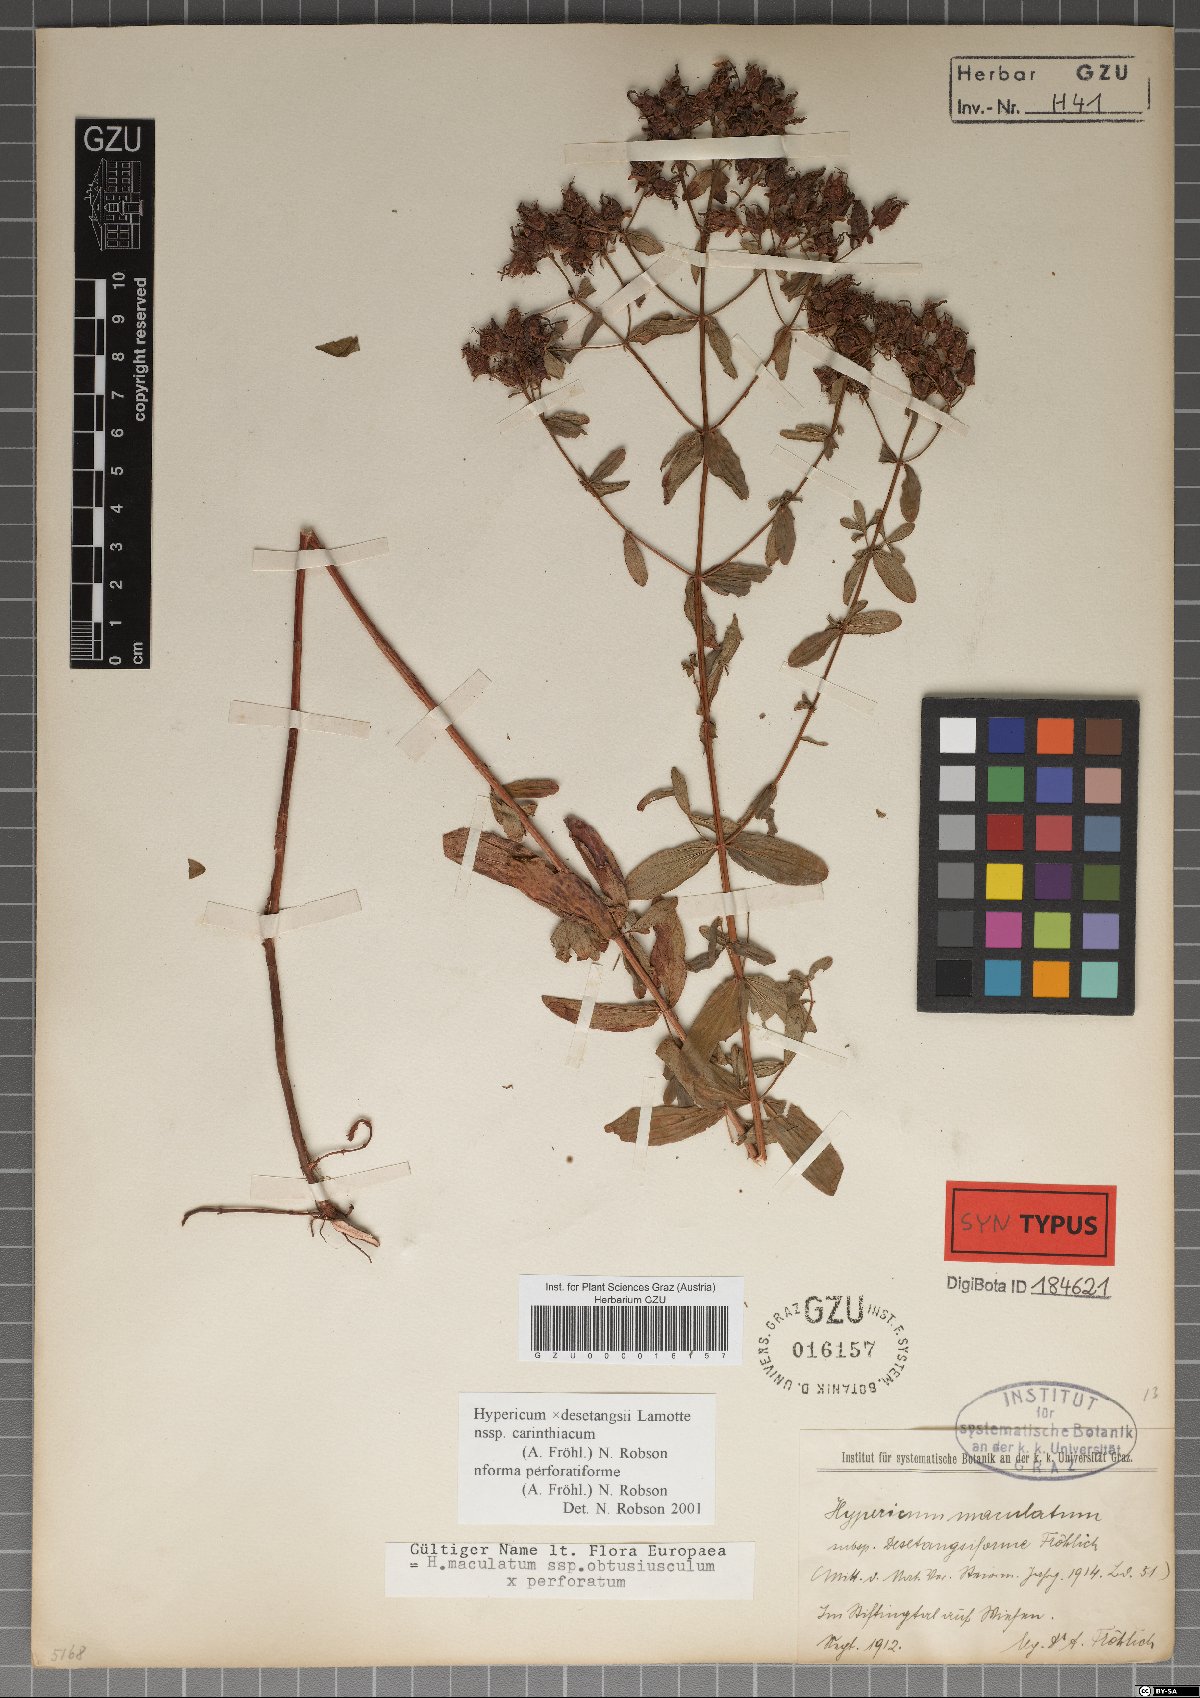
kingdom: Plantae
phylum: Tracheophyta
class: Magnoliopsida
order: Malpighiales
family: Hypericaceae
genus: Hypericum
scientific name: Hypericum carinthiacum
